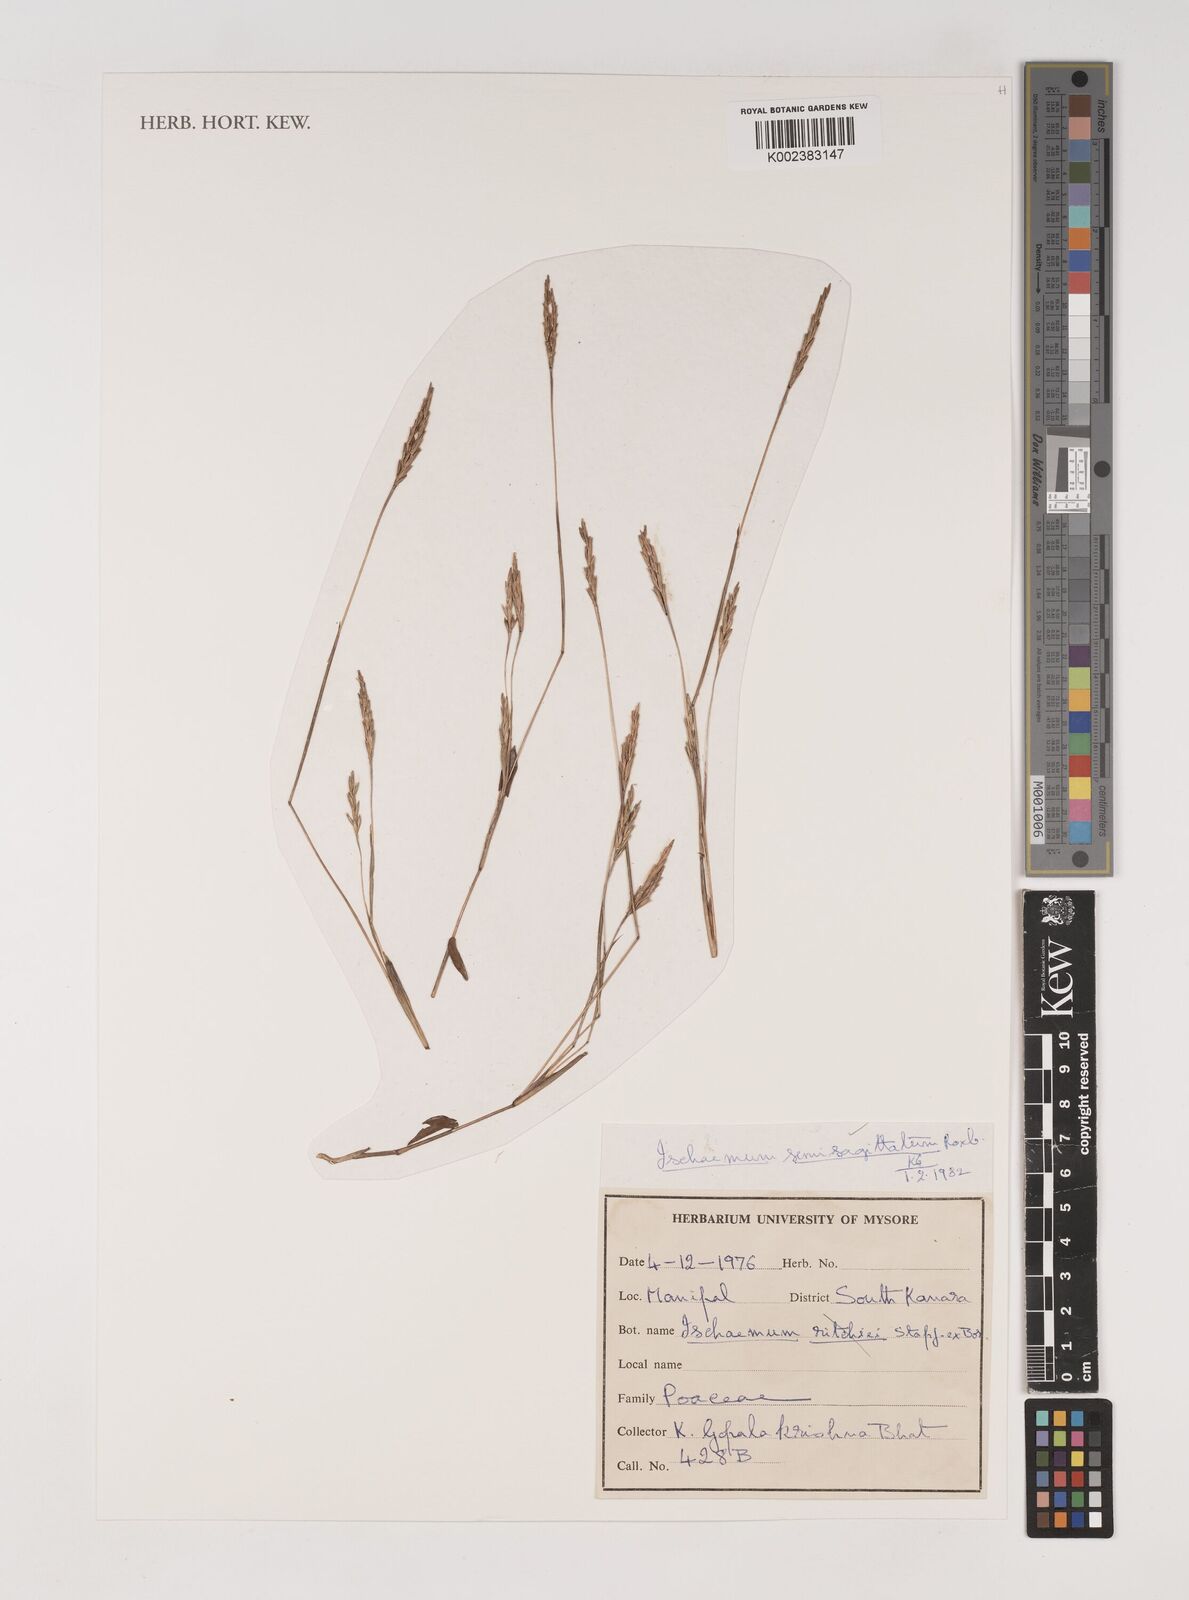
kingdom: Plantae
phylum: Tracheophyta
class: Liliopsida
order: Poales
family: Poaceae
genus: Ischaemum
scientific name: Ischaemum semisagittatum
